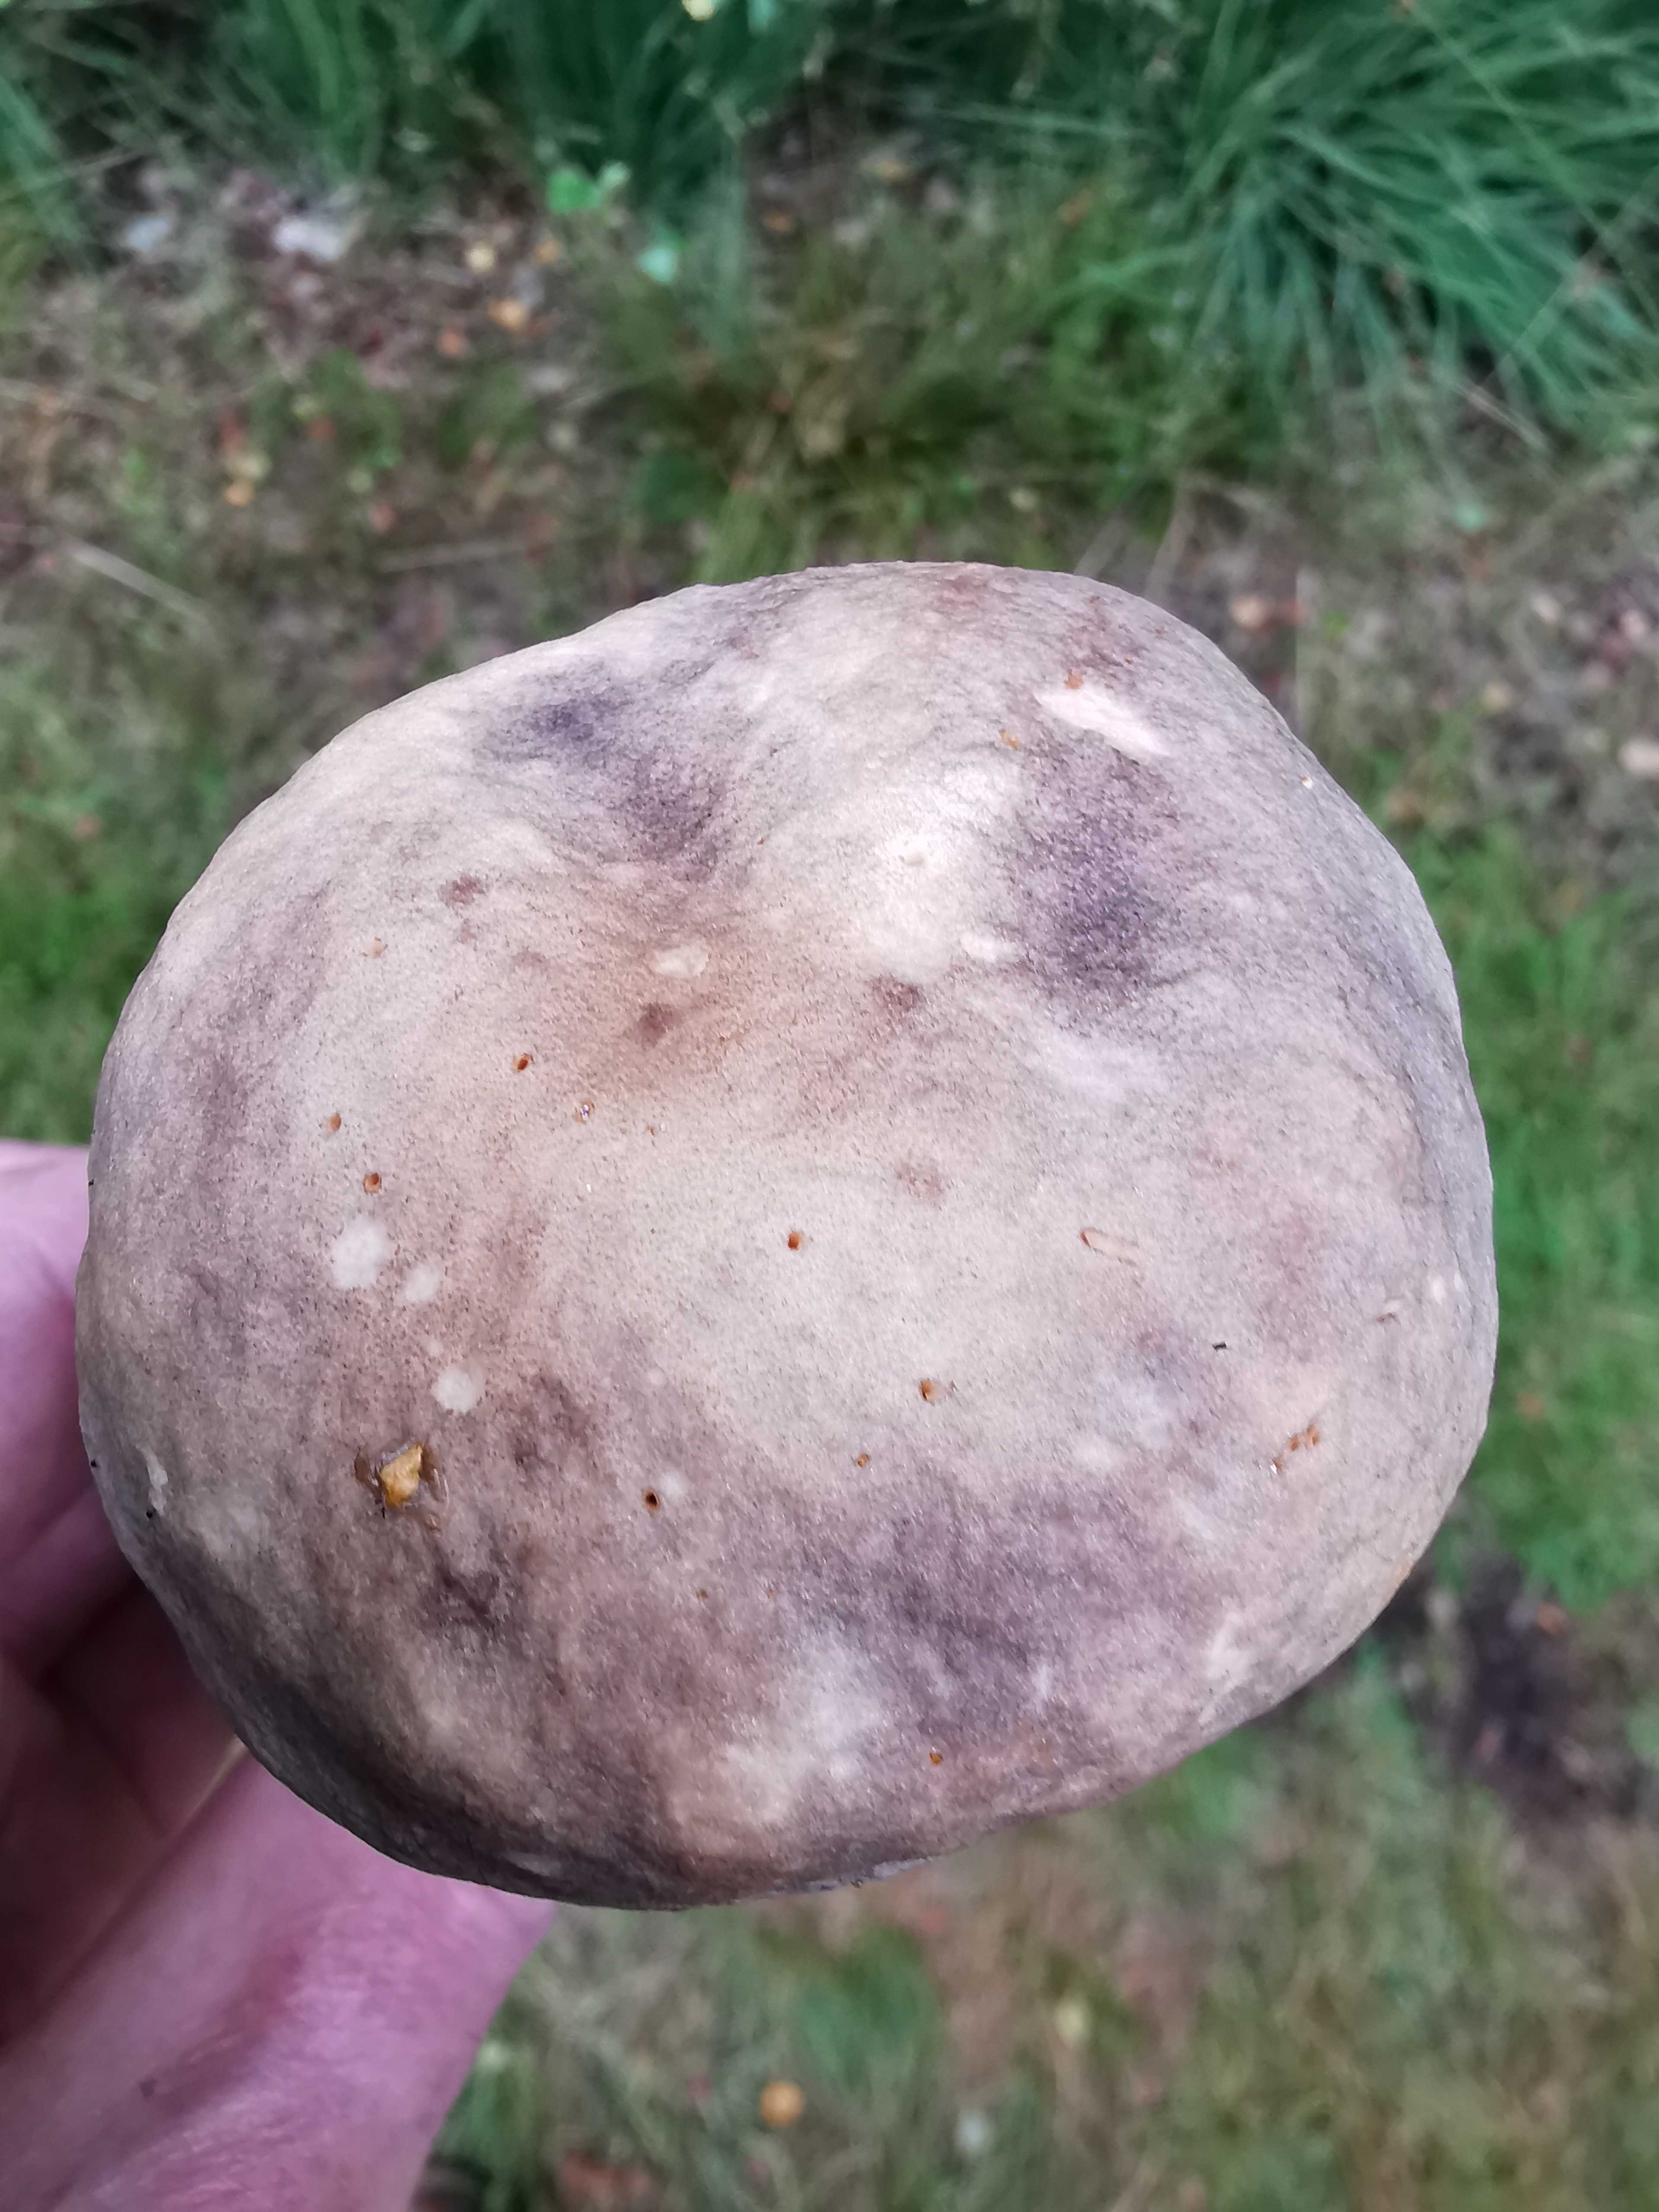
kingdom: Fungi
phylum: Basidiomycota
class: Agaricomycetes
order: Boletales
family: Boletaceae
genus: Leccinum
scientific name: Leccinum variicolor
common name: flammet skælrørhat
